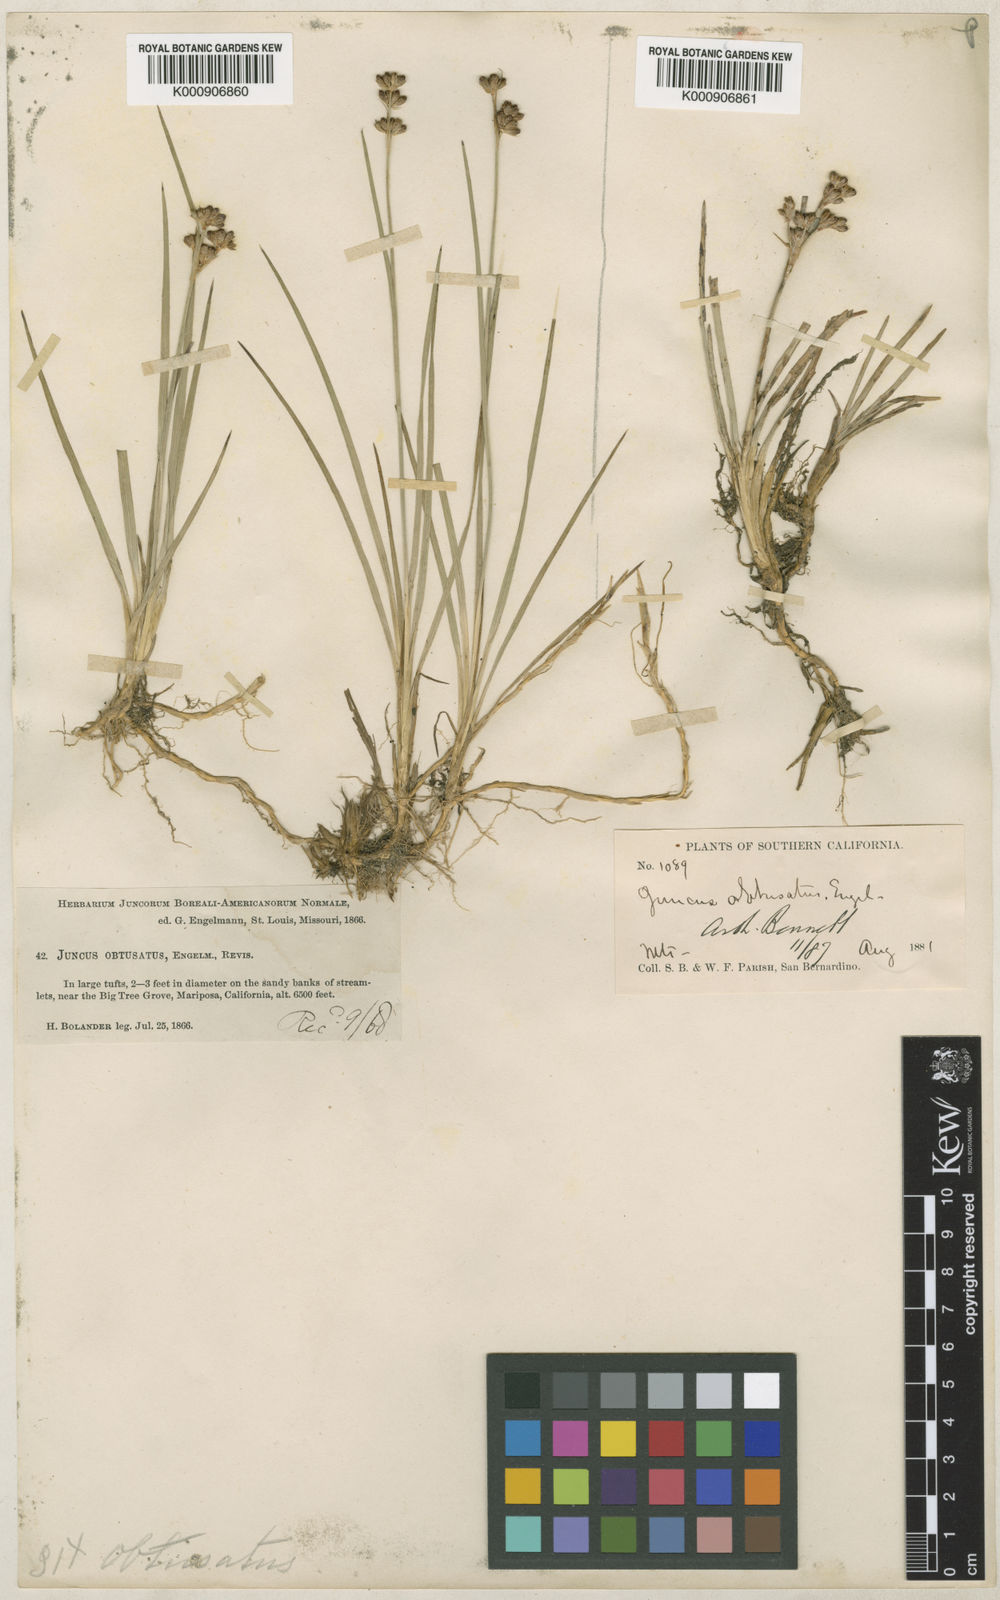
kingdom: Plantae
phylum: Tracheophyta
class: Liliopsida
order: Poales
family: Juncaceae
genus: Juncus
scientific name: Juncus covillei
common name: Coville's rush
